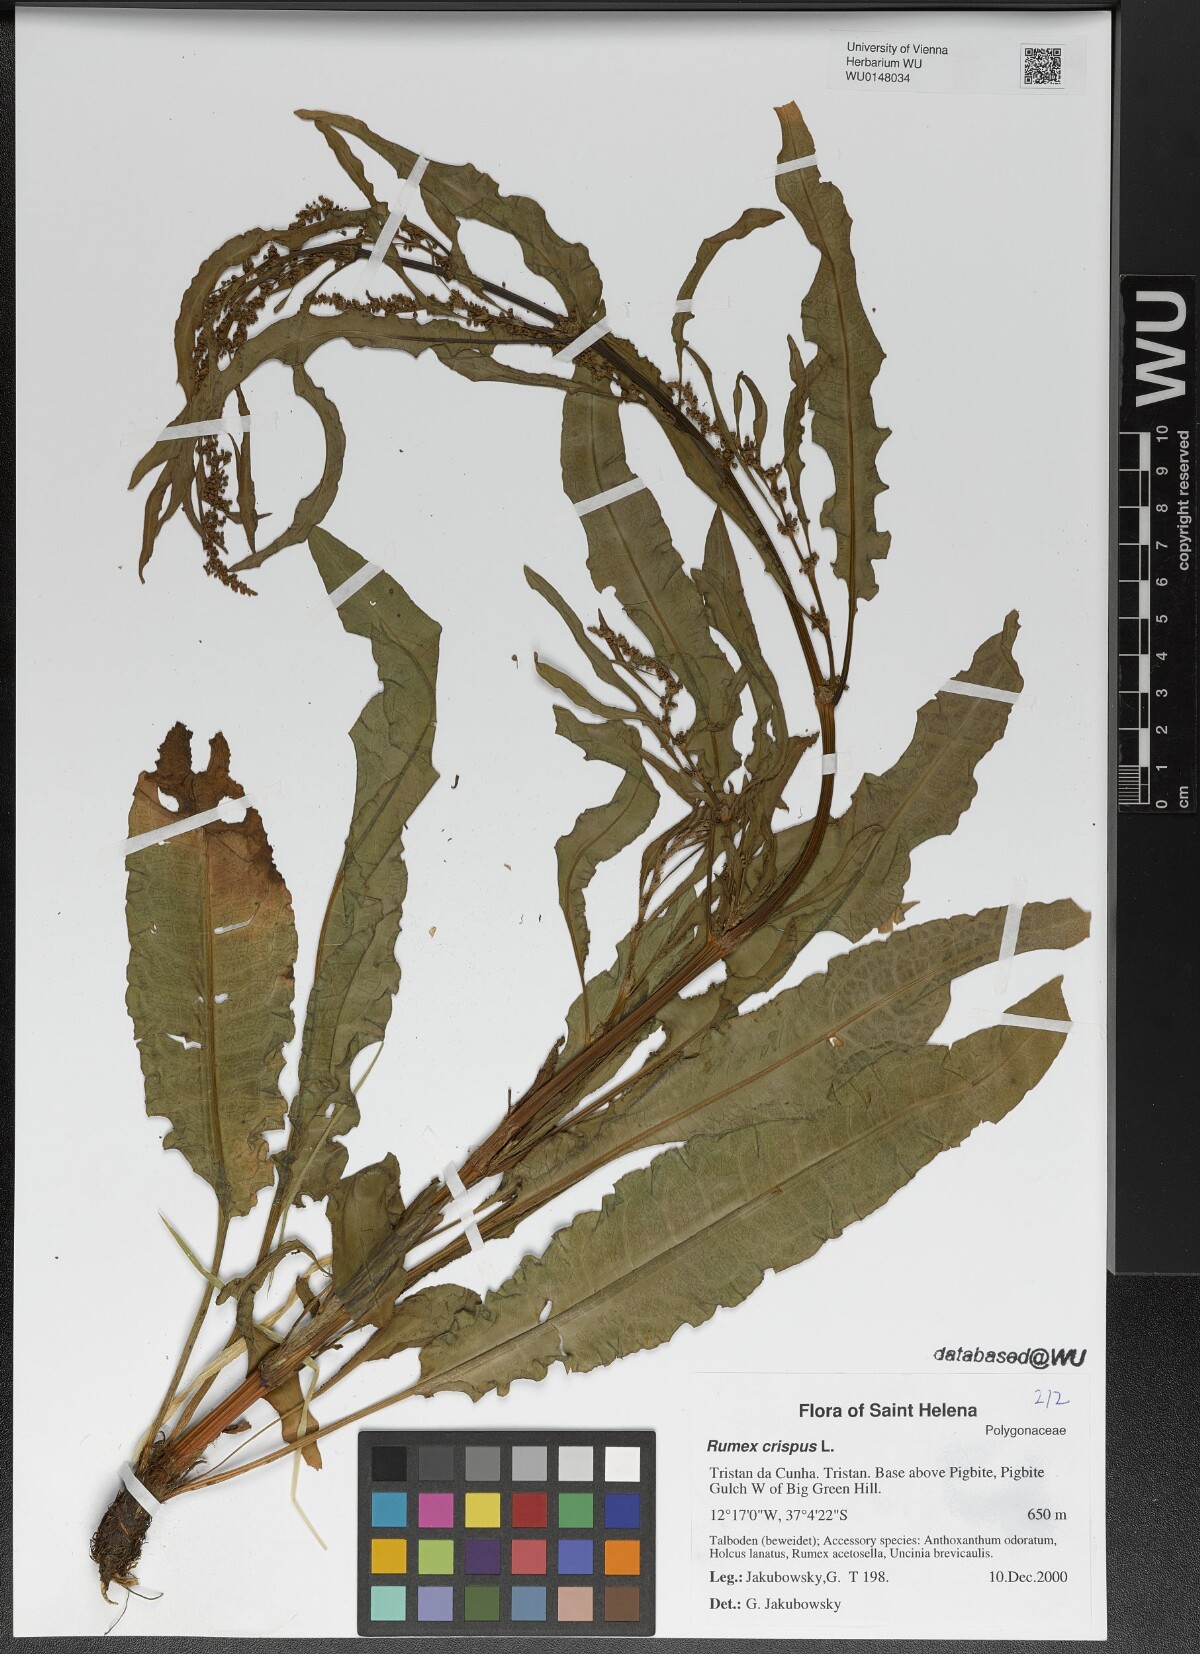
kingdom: Plantae
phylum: Tracheophyta
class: Magnoliopsida
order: Caryophyllales
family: Polygonaceae
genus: Rumex
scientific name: Rumex crispus
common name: Curled dock
